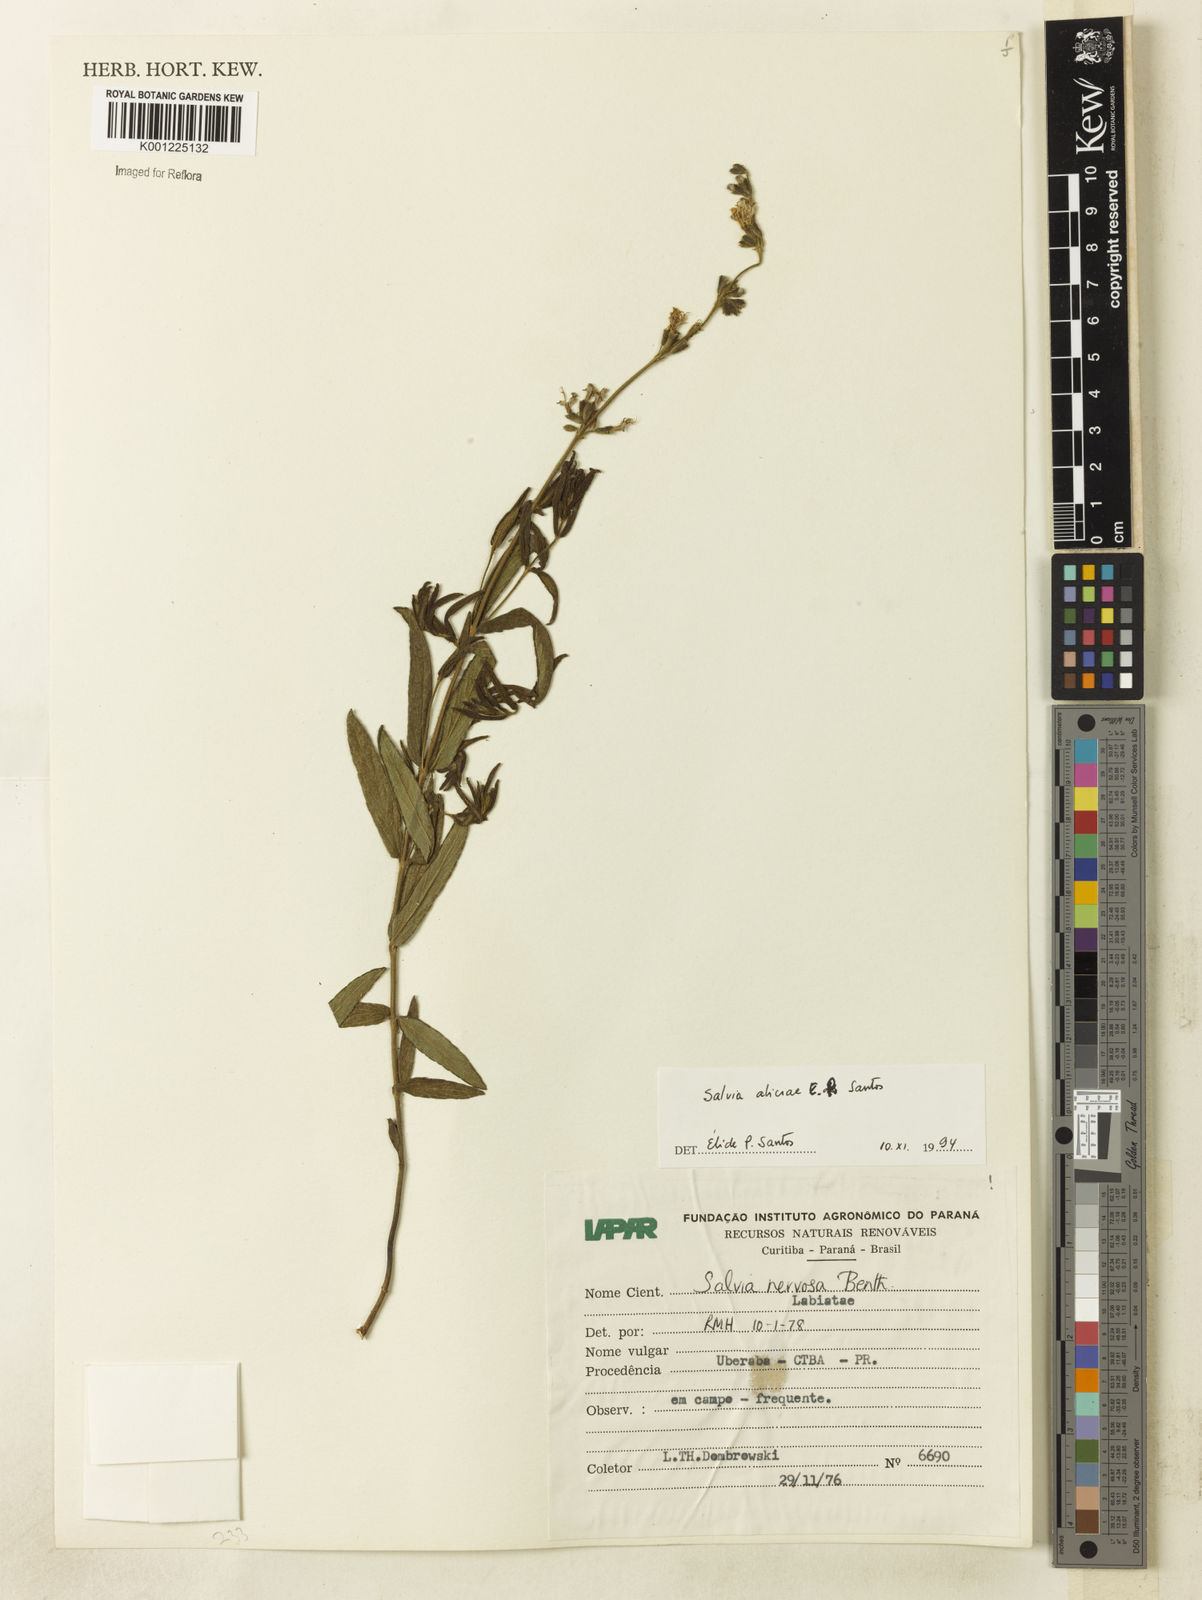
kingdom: Plantae
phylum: Tracheophyta
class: Magnoliopsida
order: Lamiales
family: Lamiaceae
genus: Salvia
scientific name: Salvia aliciae
